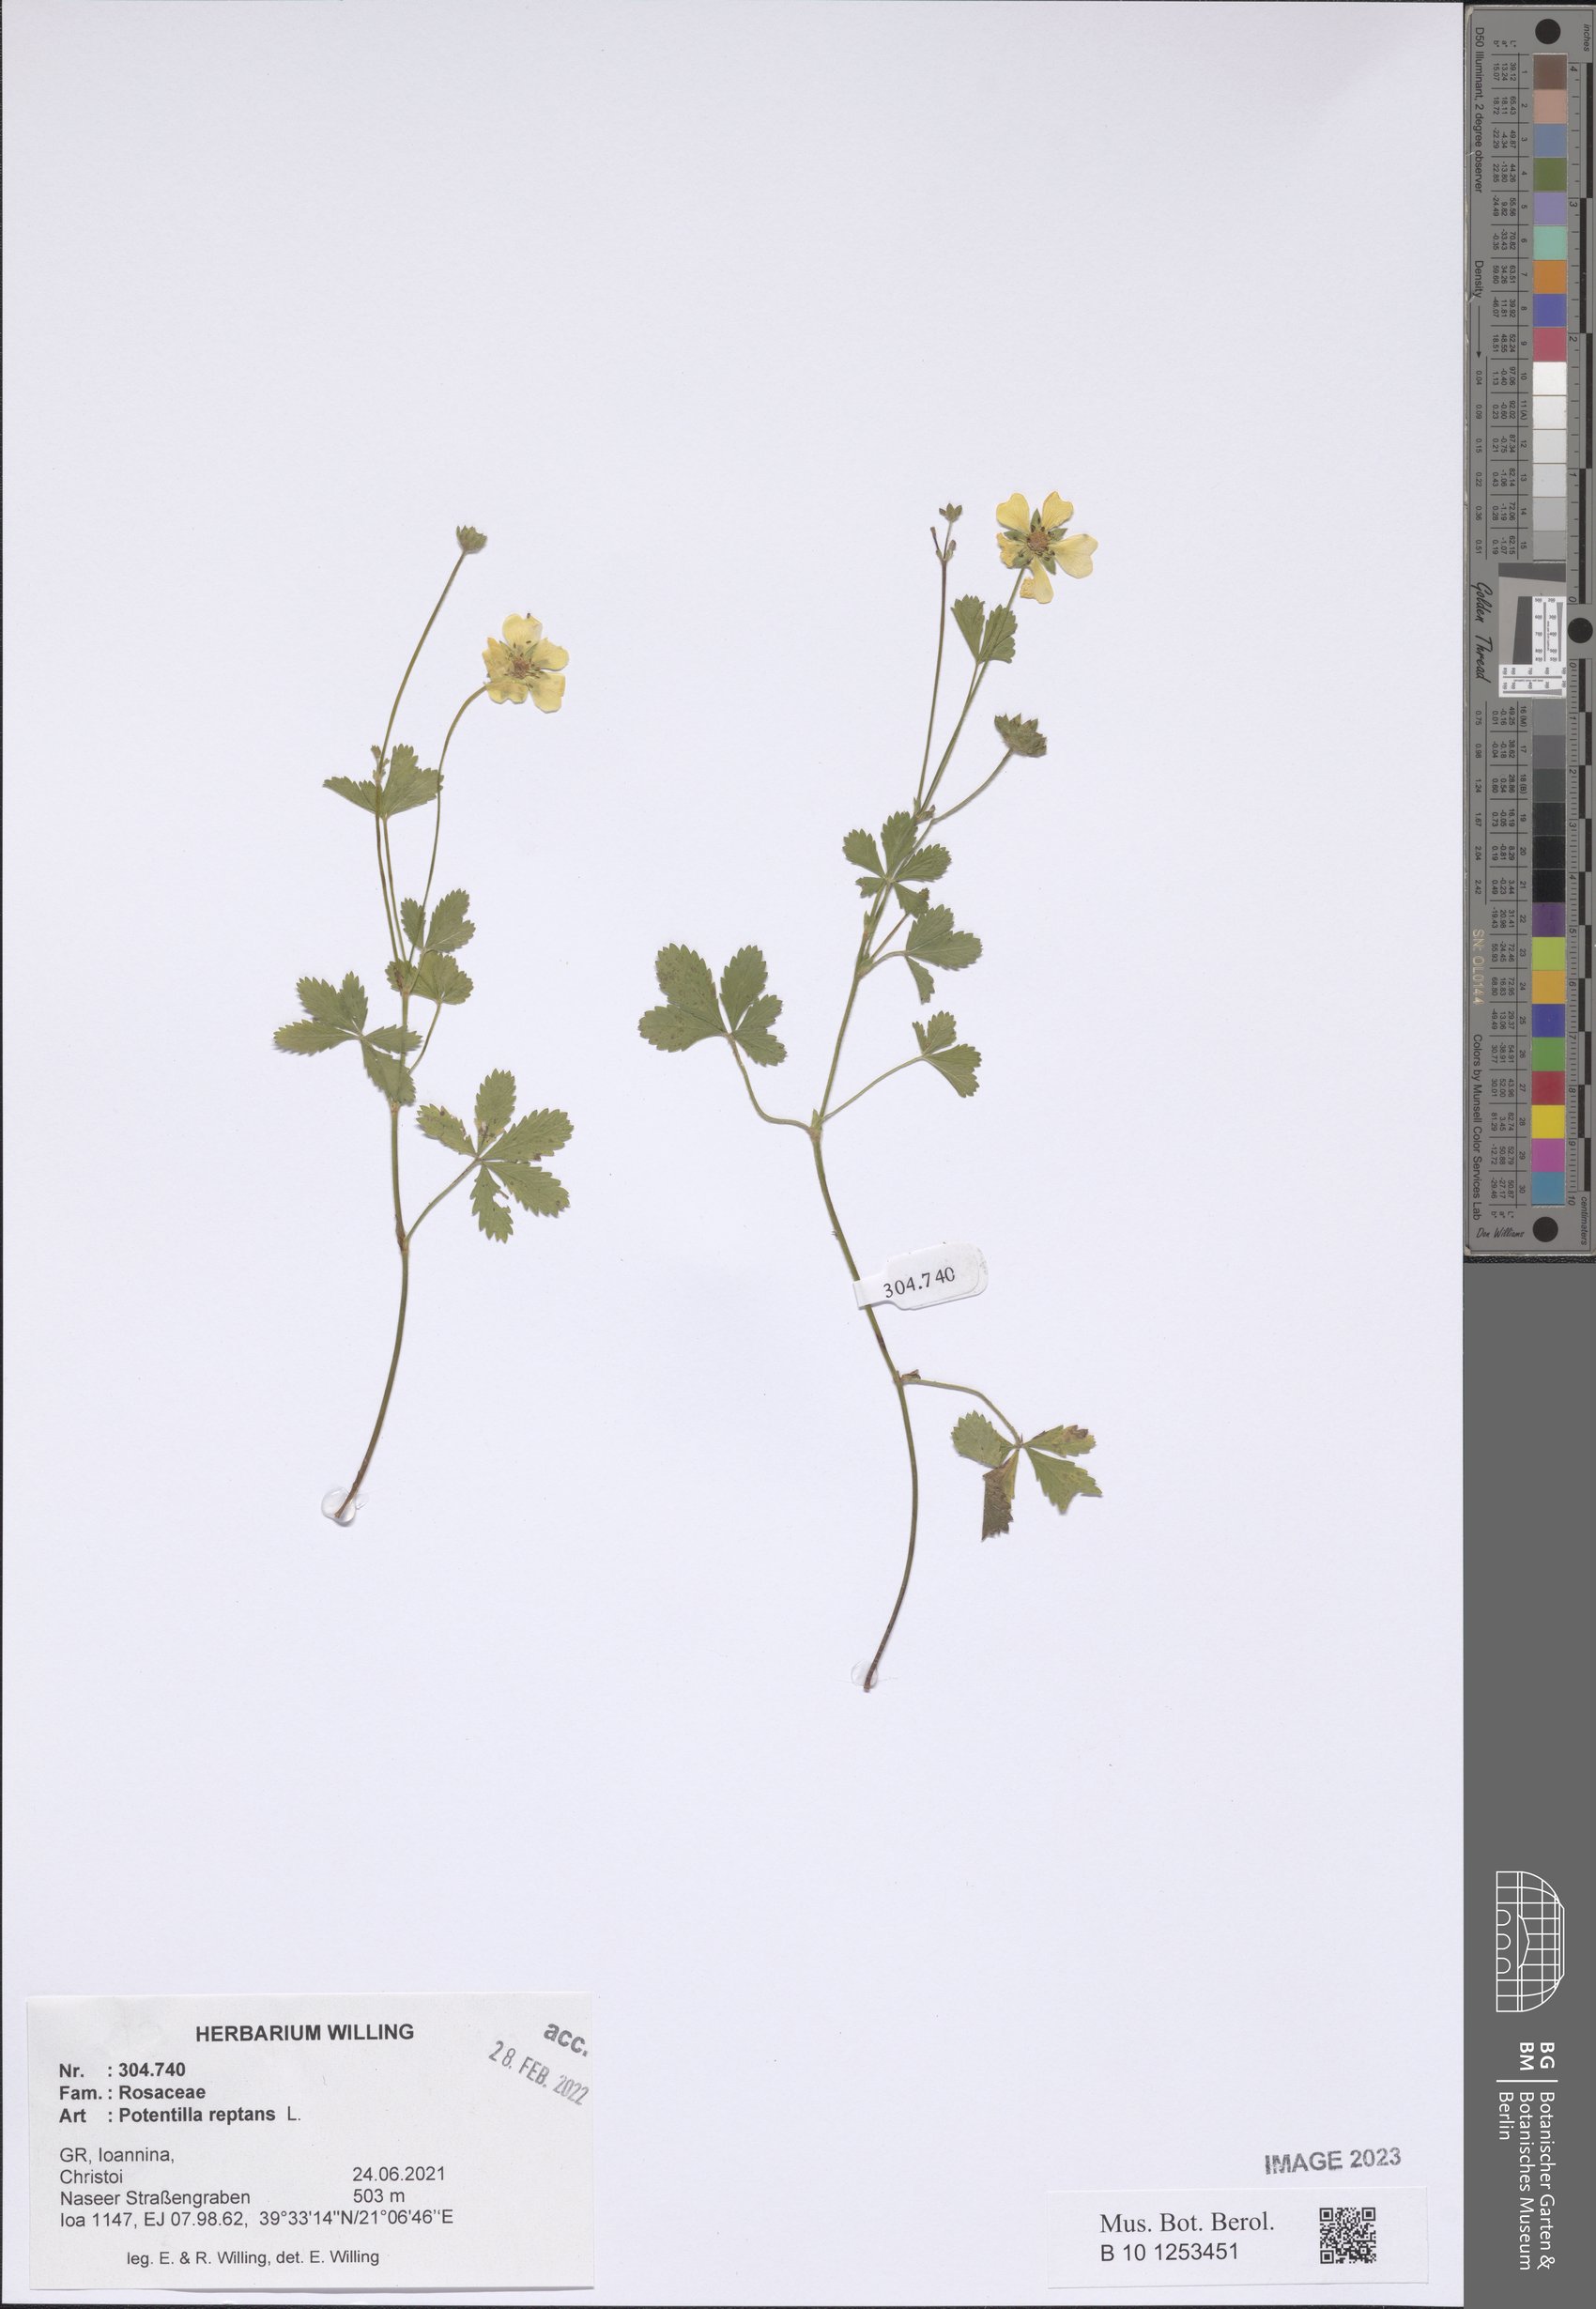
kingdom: Plantae
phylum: Tracheophyta
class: Magnoliopsida
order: Rosales
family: Rosaceae
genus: Potentilla
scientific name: Potentilla reptans
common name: Creeping cinquefoil
